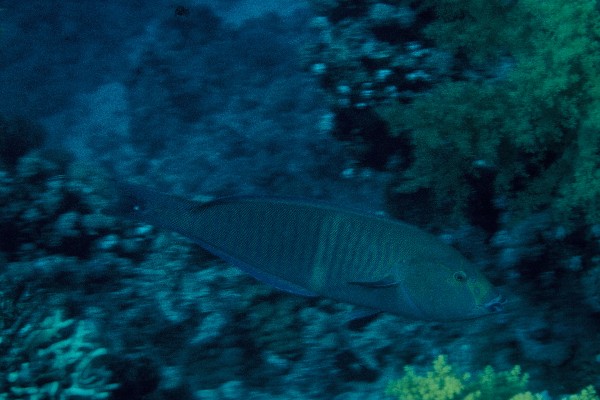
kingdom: Animalia
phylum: Chordata
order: Perciformes
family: Labridae
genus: Hologymnosus
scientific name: Hologymnosus annulatus
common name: Ring wrasse
